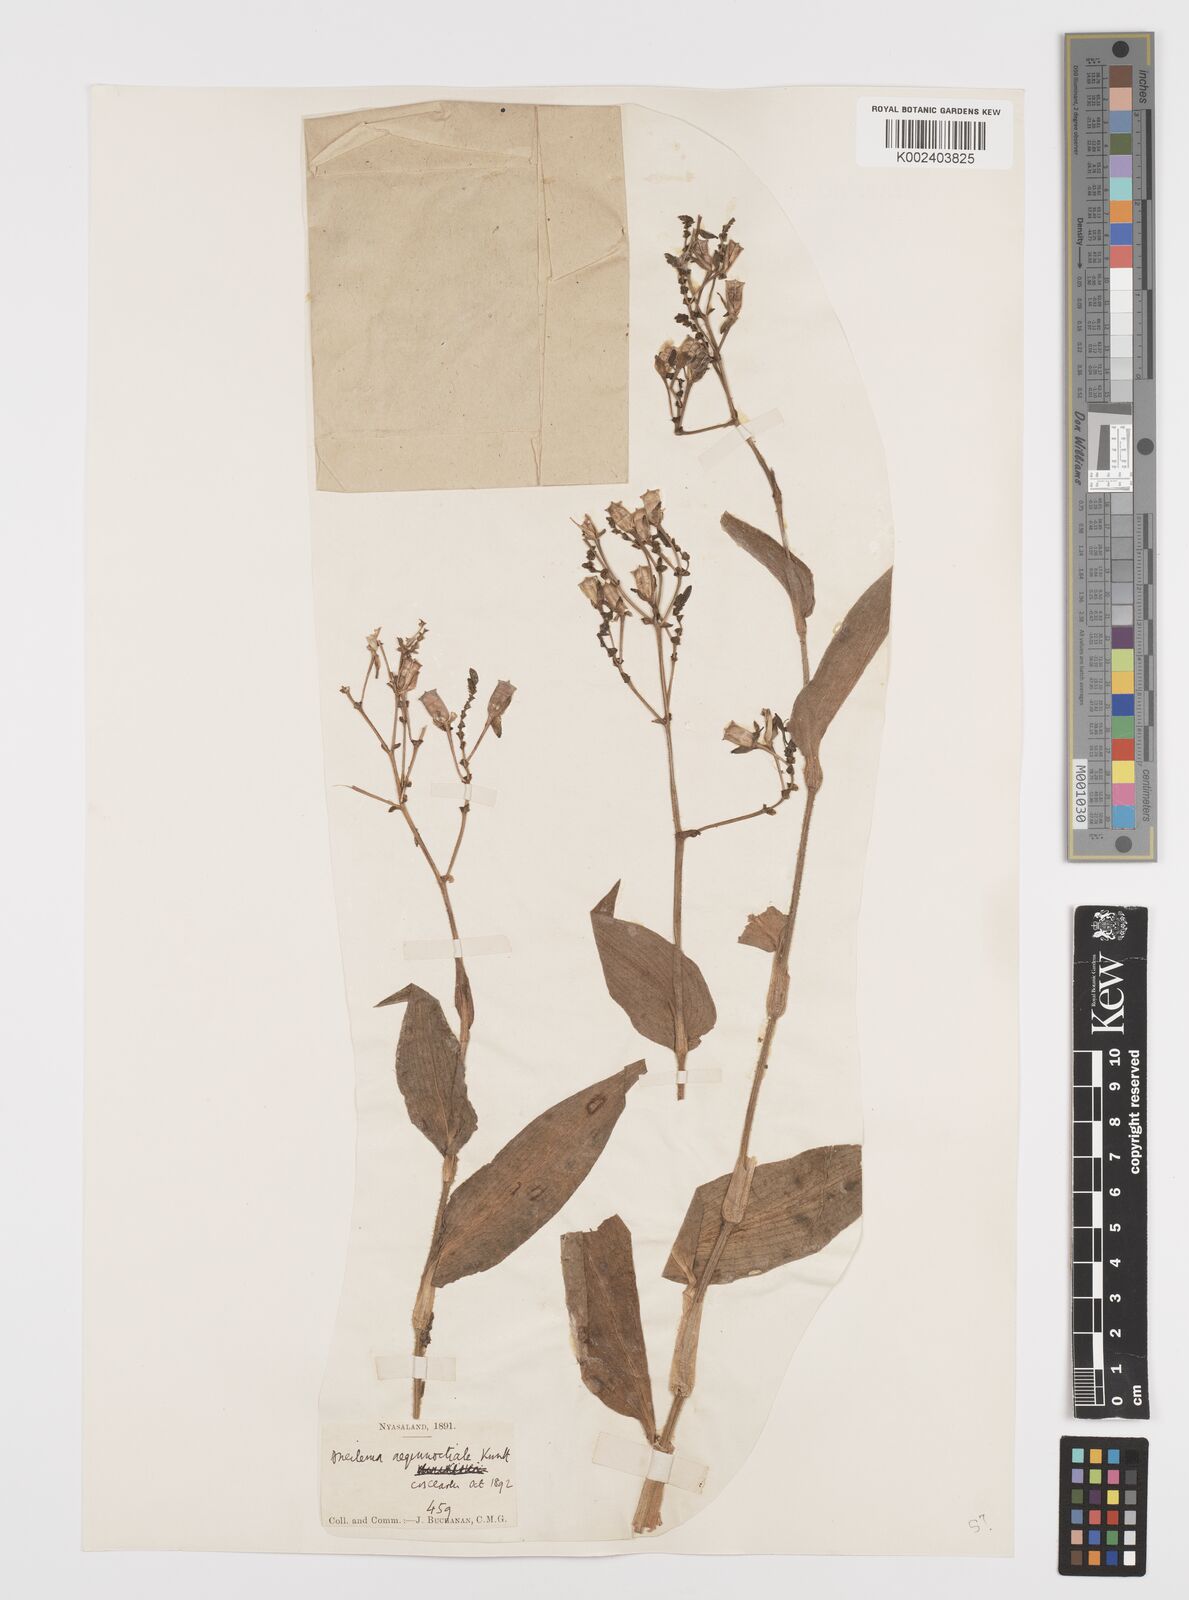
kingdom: Plantae
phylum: Tracheophyta
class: Liliopsida
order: Commelinales
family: Commelinaceae
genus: Aneilema
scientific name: Aneilema aequinoctiale
